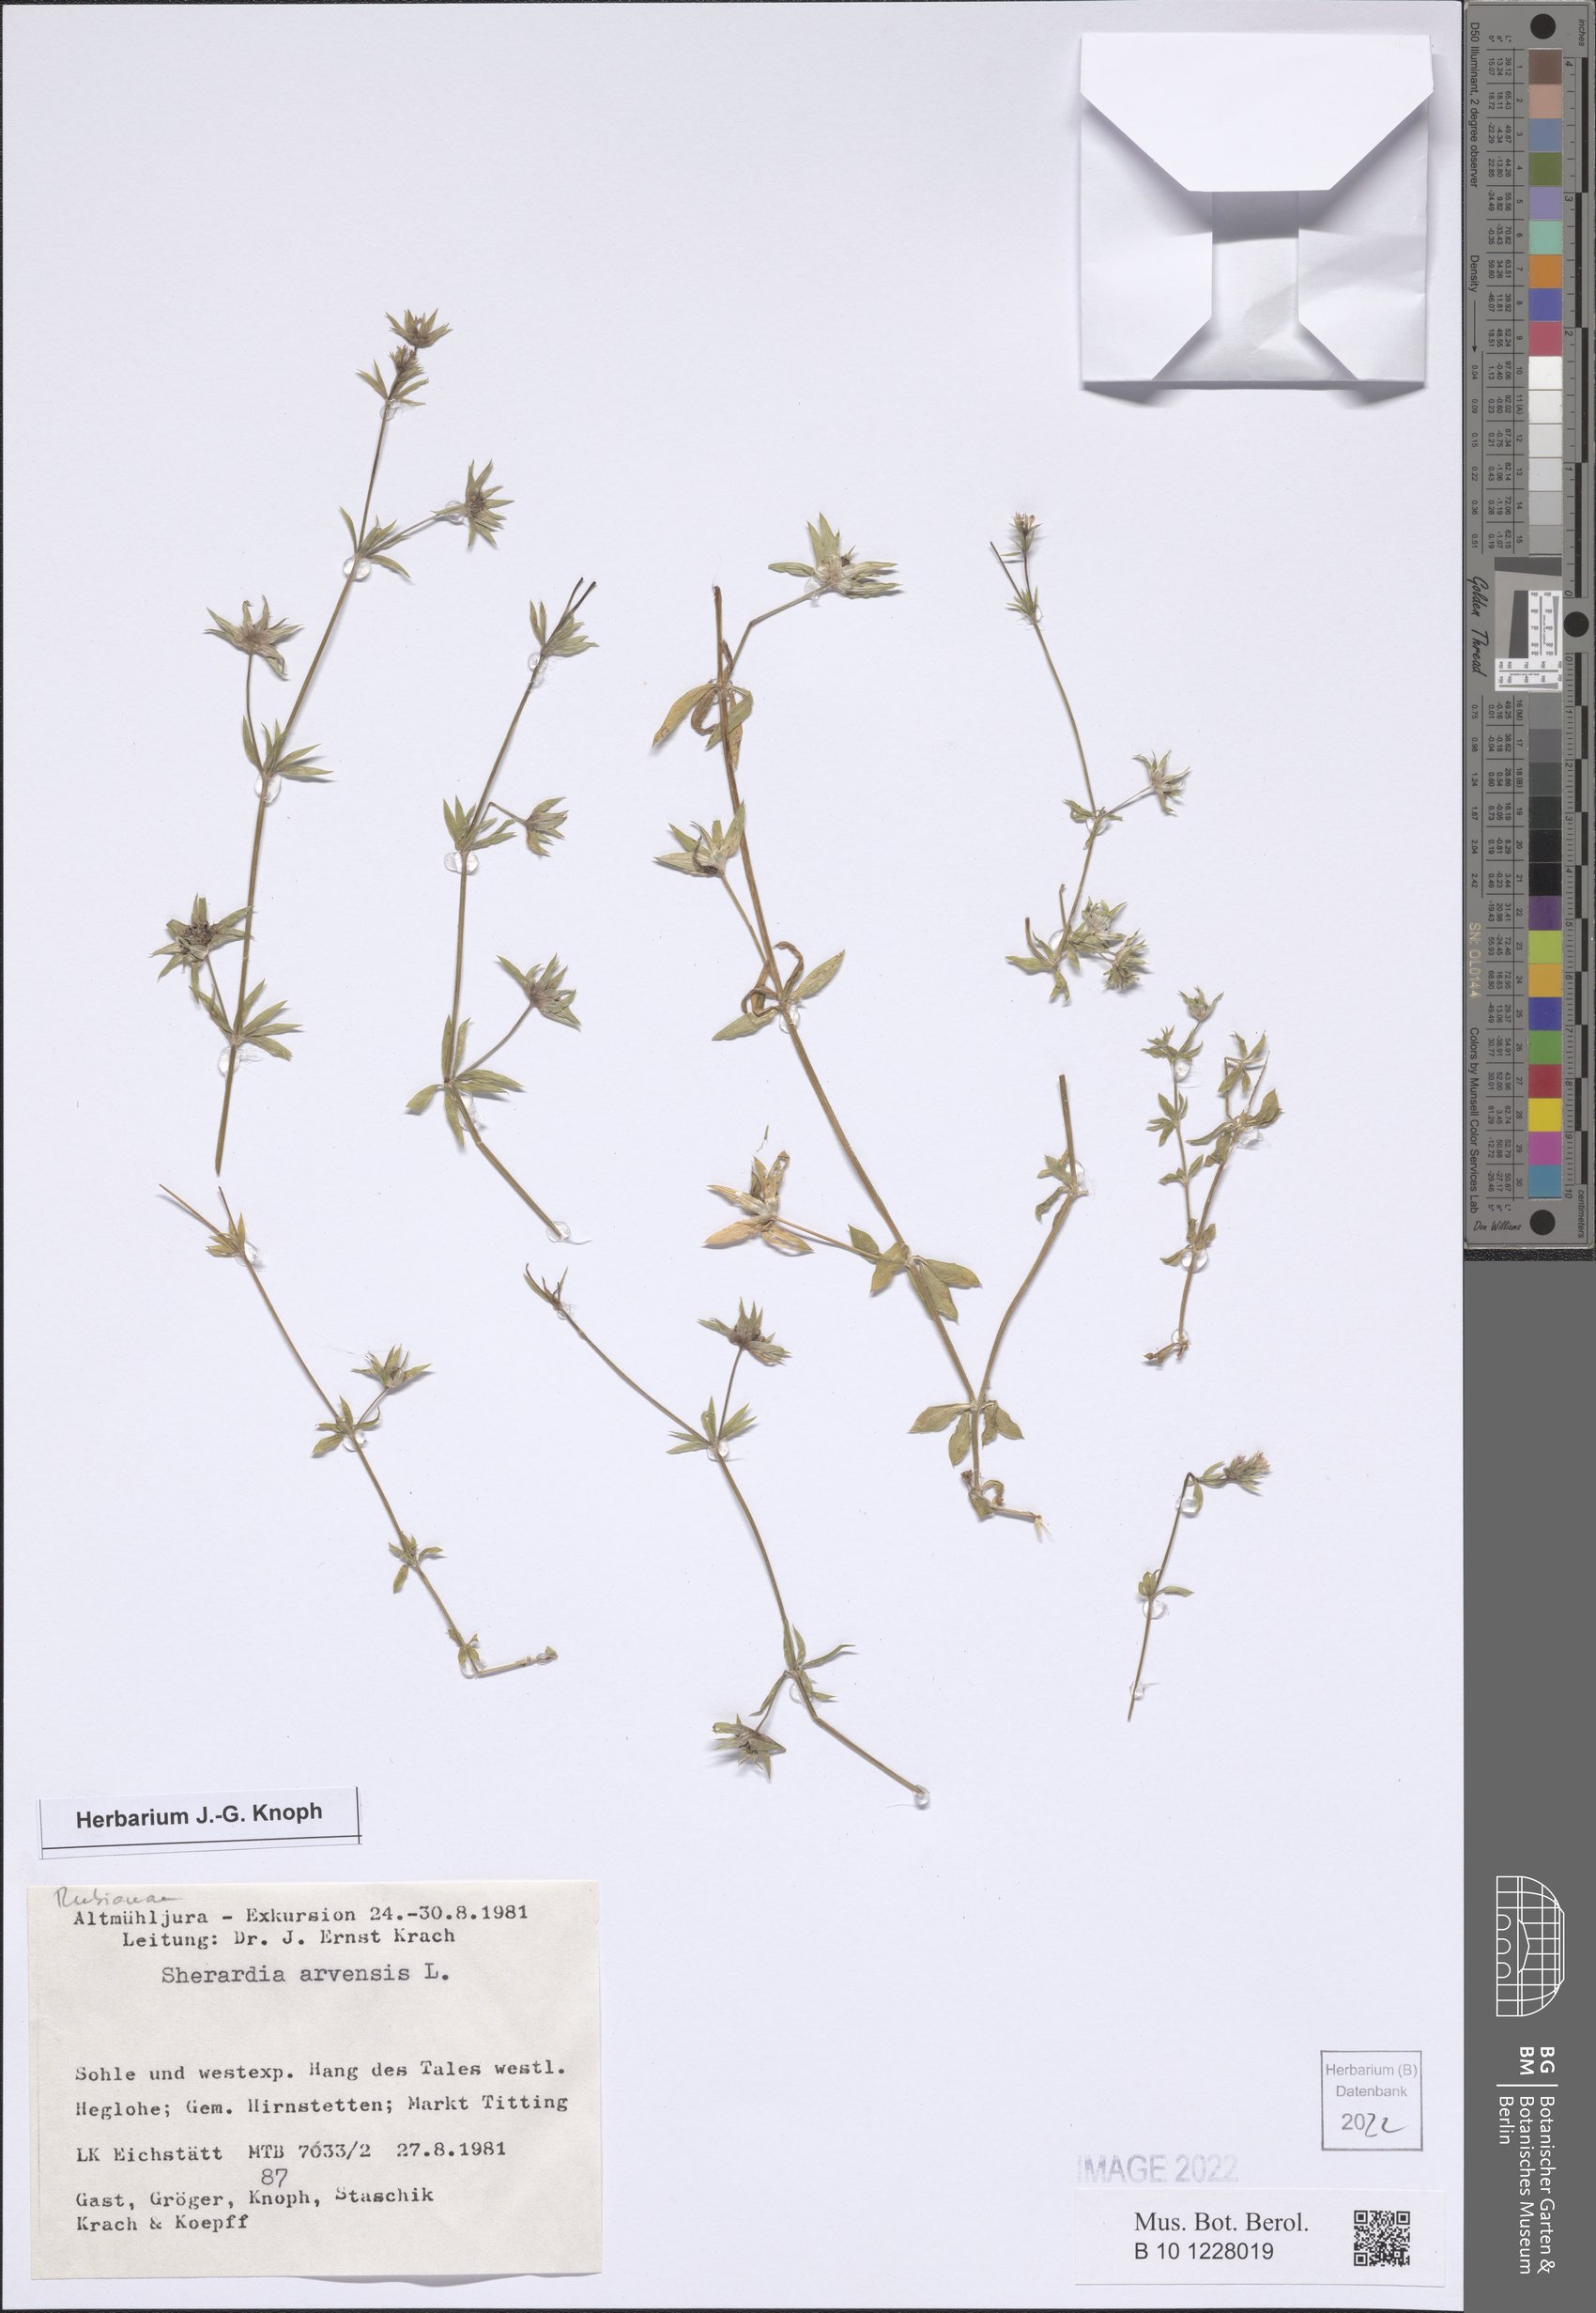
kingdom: Plantae
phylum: Tracheophyta
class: Magnoliopsida
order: Gentianales
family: Rubiaceae
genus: Sherardia
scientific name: Sherardia arvensis
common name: Field madder
